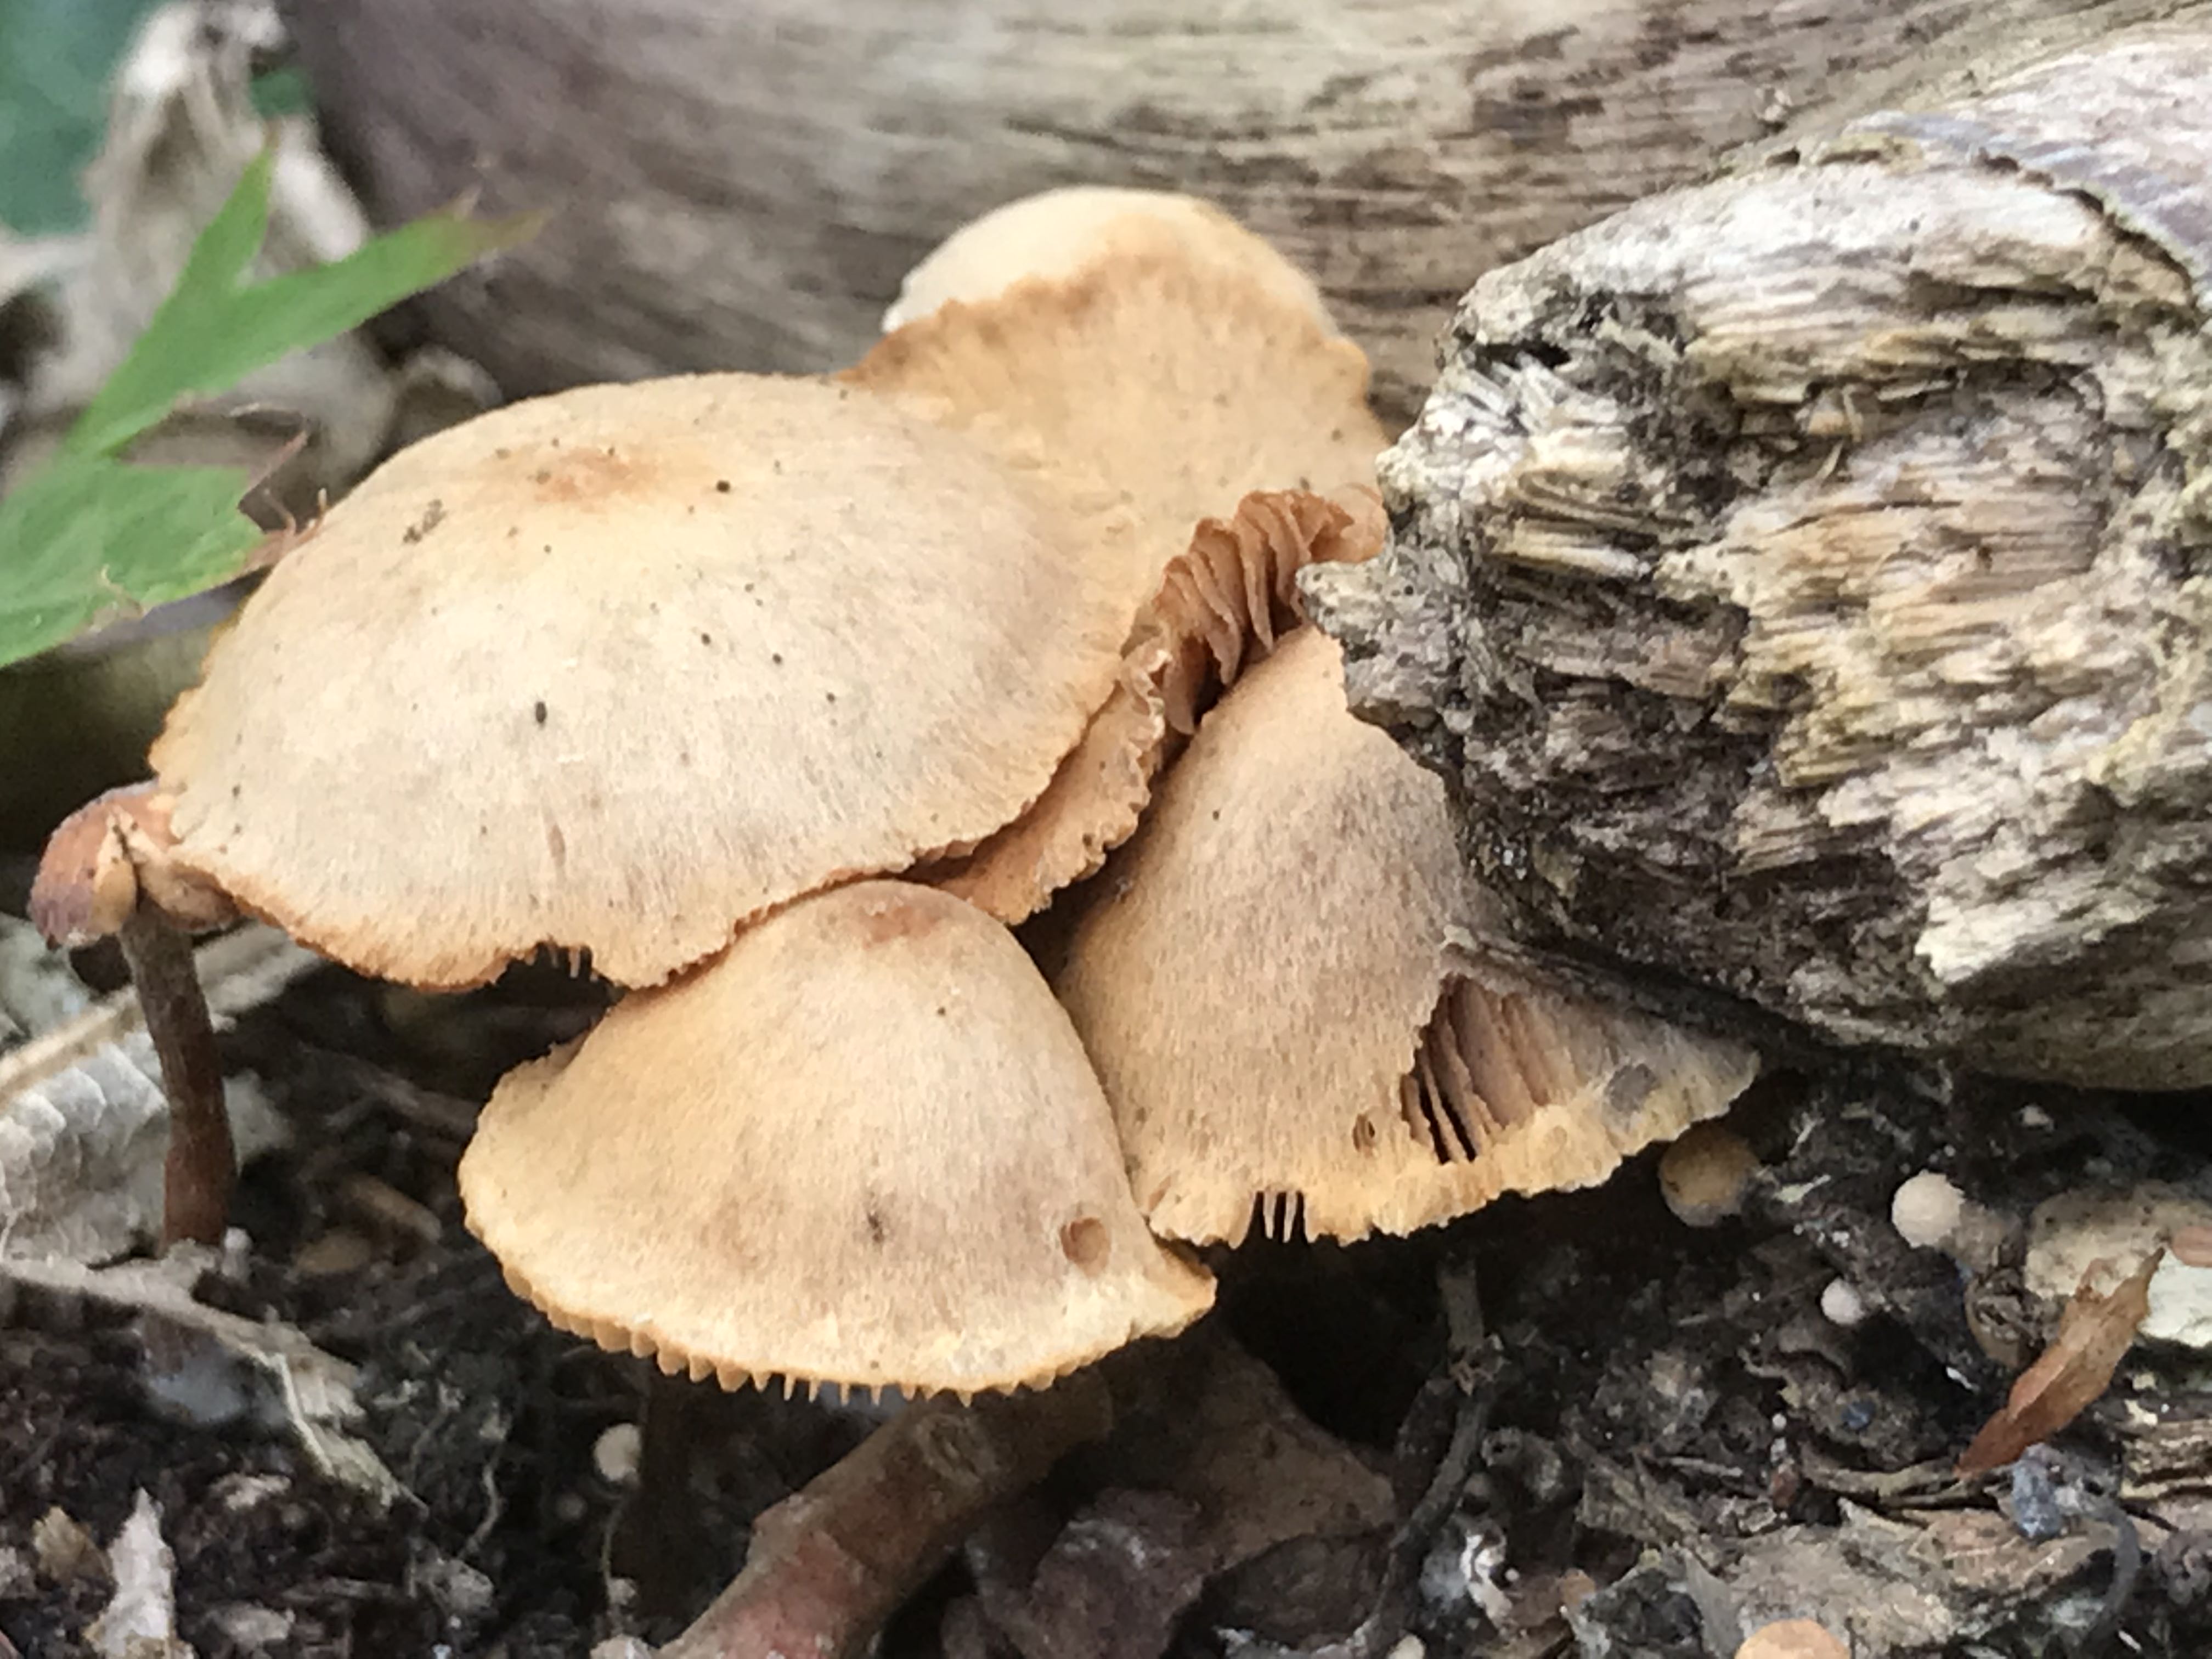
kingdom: Fungi
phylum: Basidiomycota
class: Agaricomycetes
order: Agaricales
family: Tubariaceae
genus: Tubaria
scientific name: Tubaria furfuracea
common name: kliddet fnughat
